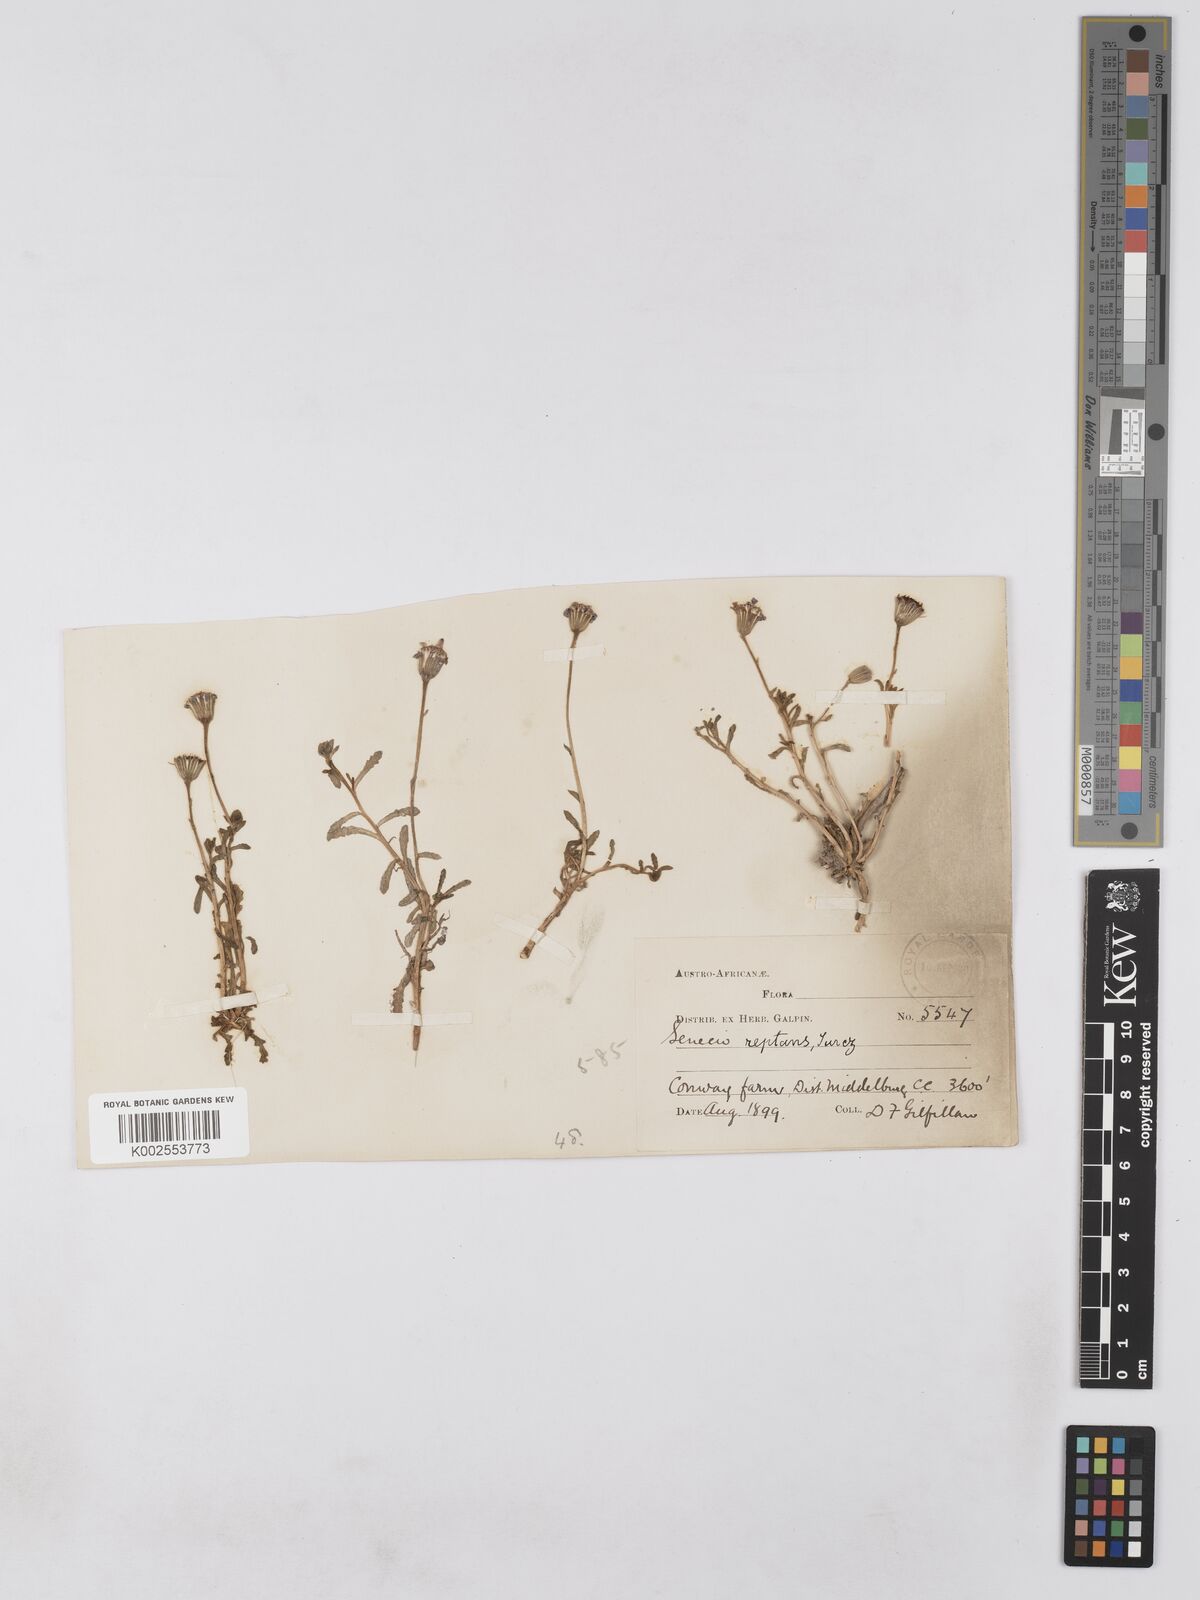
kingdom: Plantae
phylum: Tracheophyta
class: Magnoliopsida
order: Asterales
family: Asteraceae
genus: Senecio
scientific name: Senecio reptans
